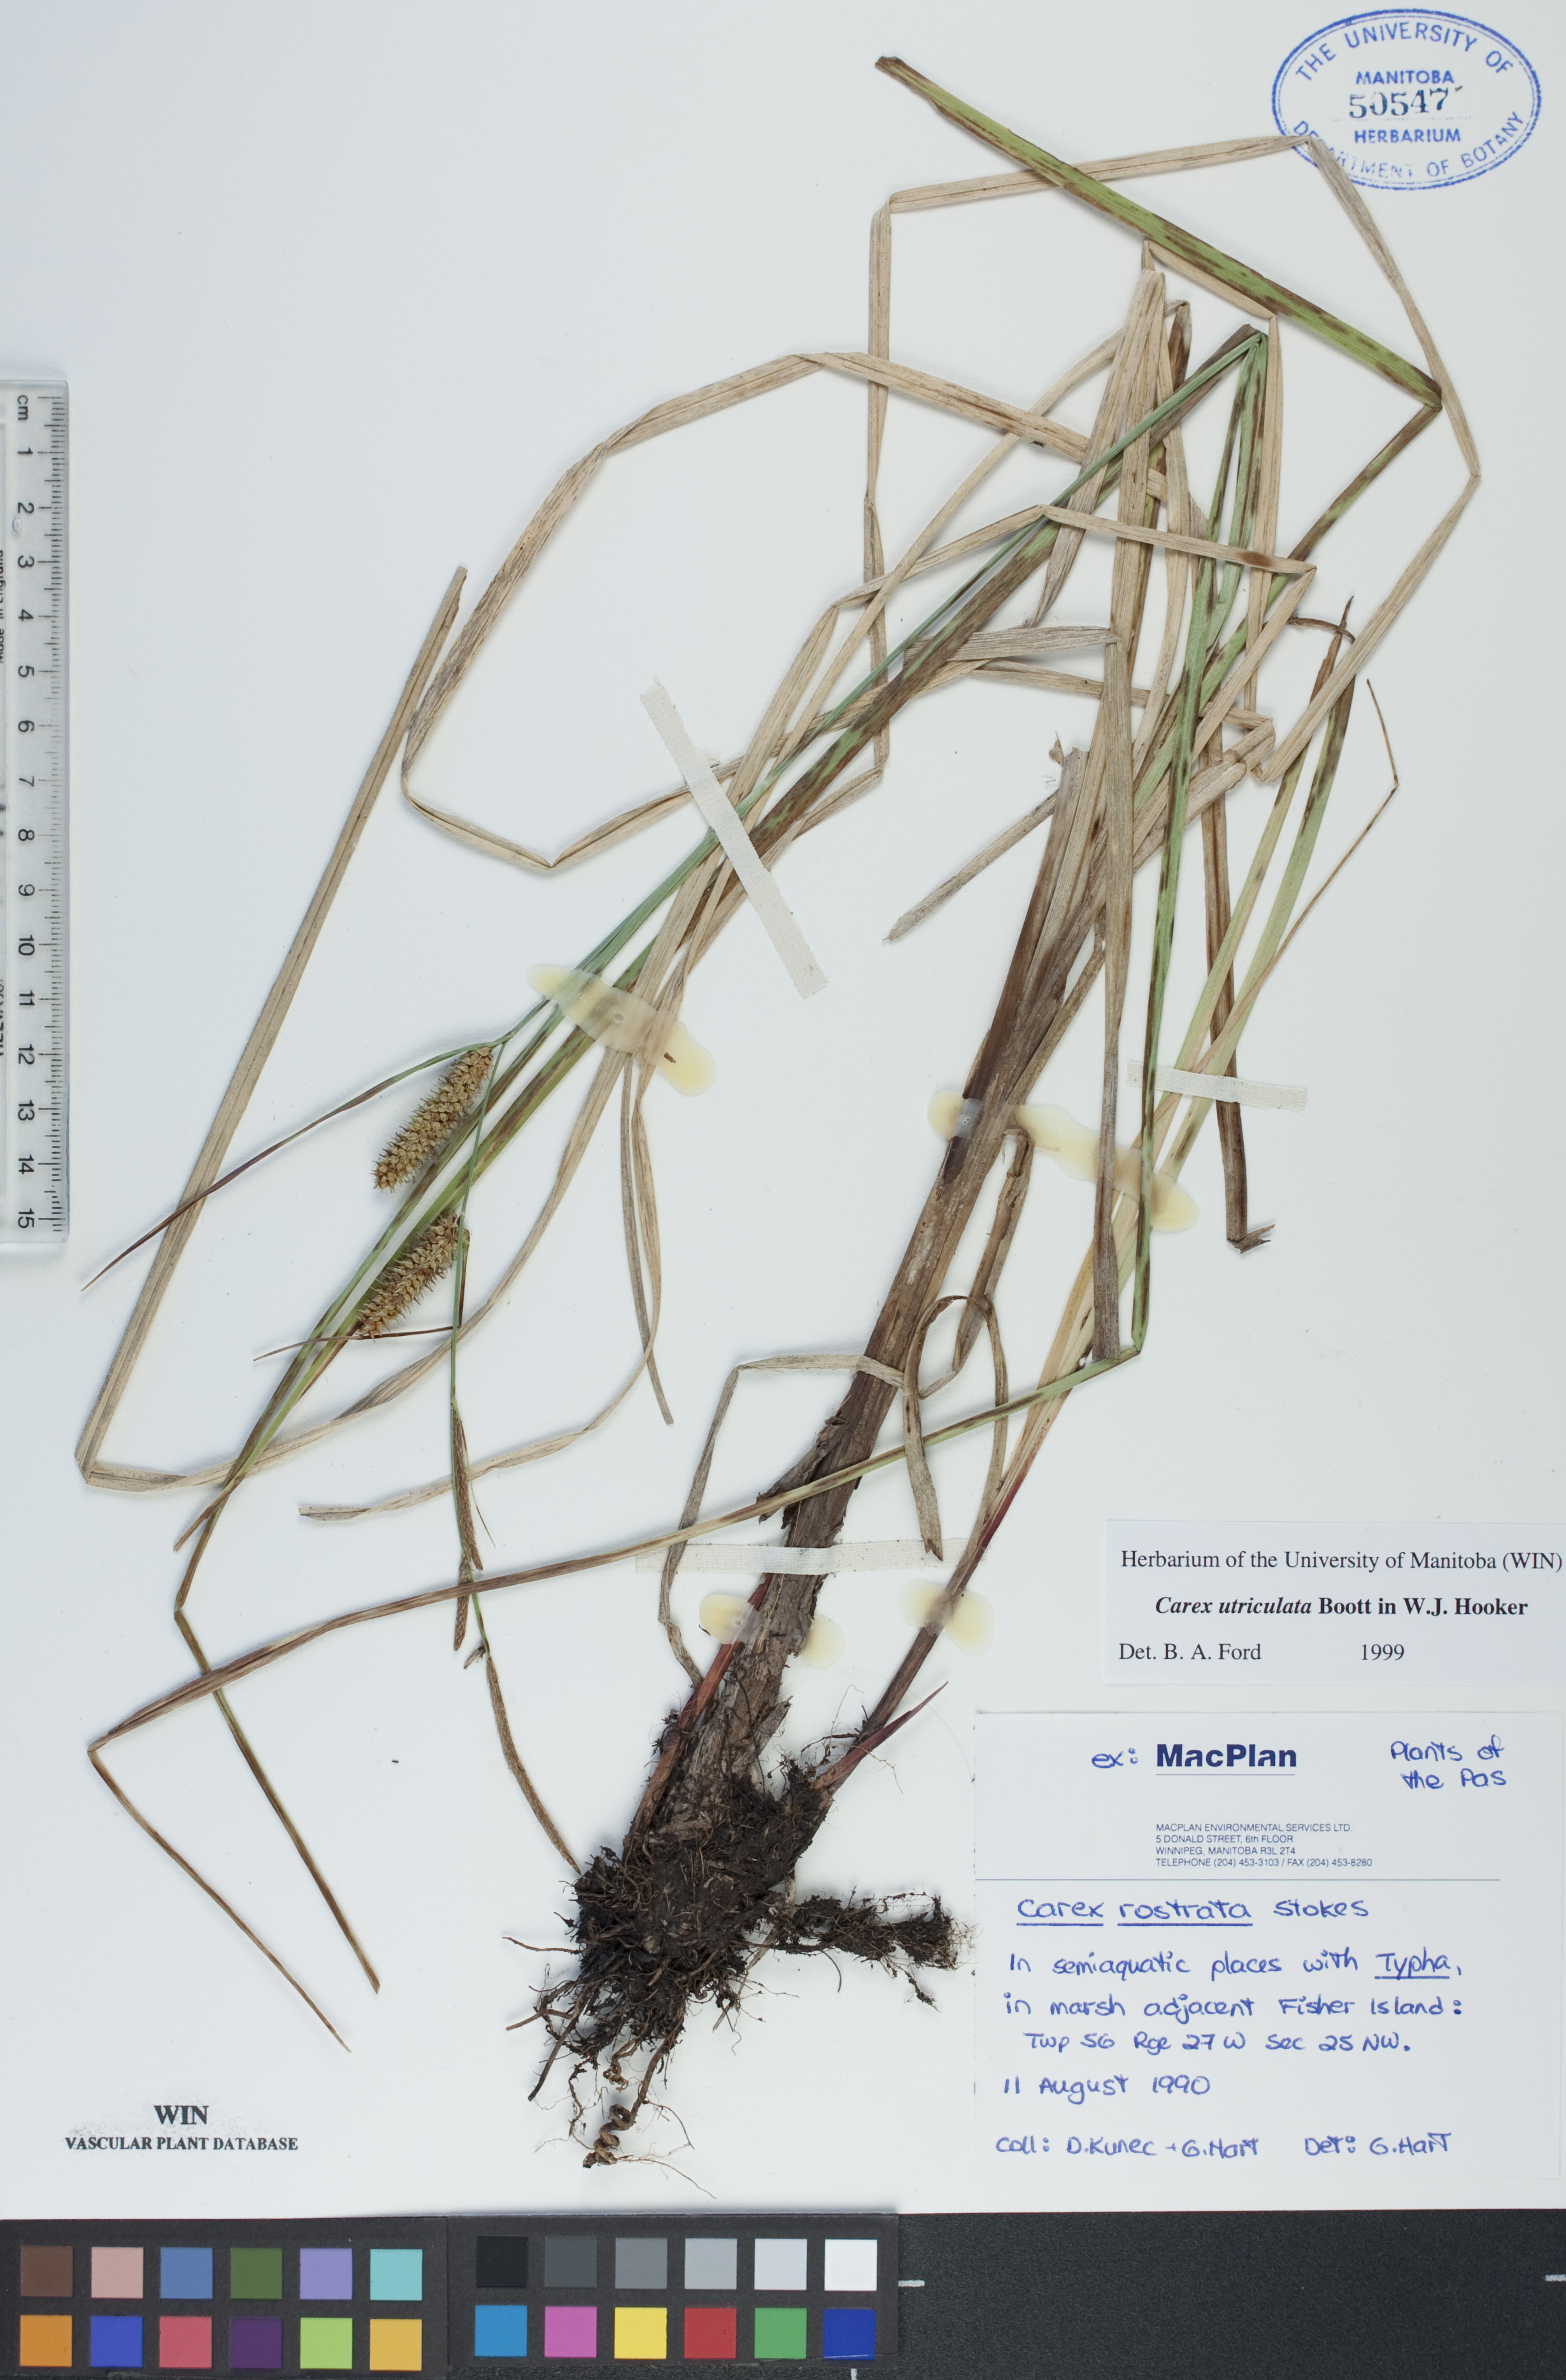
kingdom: Plantae
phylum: Tracheophyta
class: Liliopsida
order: Poales
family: Cyperaceae
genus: Carex
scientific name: Carex utriculata
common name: Beaked sedge
